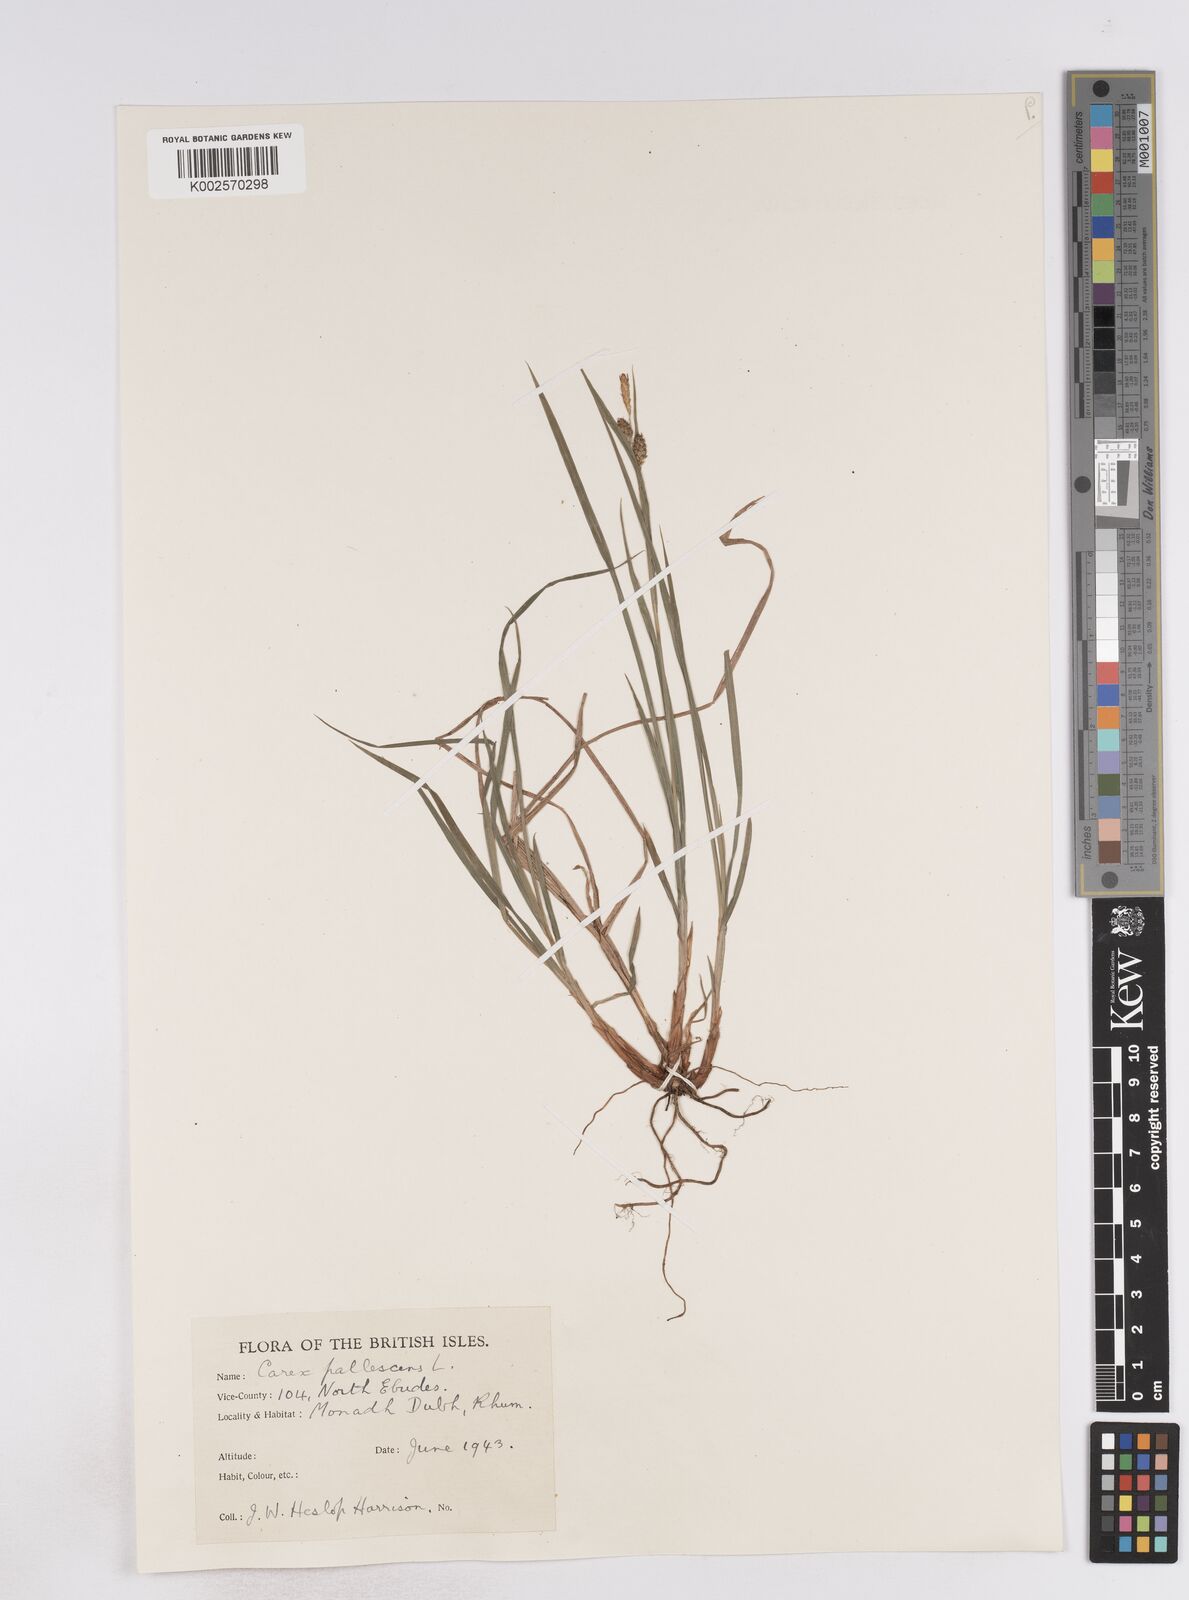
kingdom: Plantae
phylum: Tracheophyta
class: Liliopsida
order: Poales
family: Cyperaceae
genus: Carex
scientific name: Carex pallescens
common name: Pale sedge
